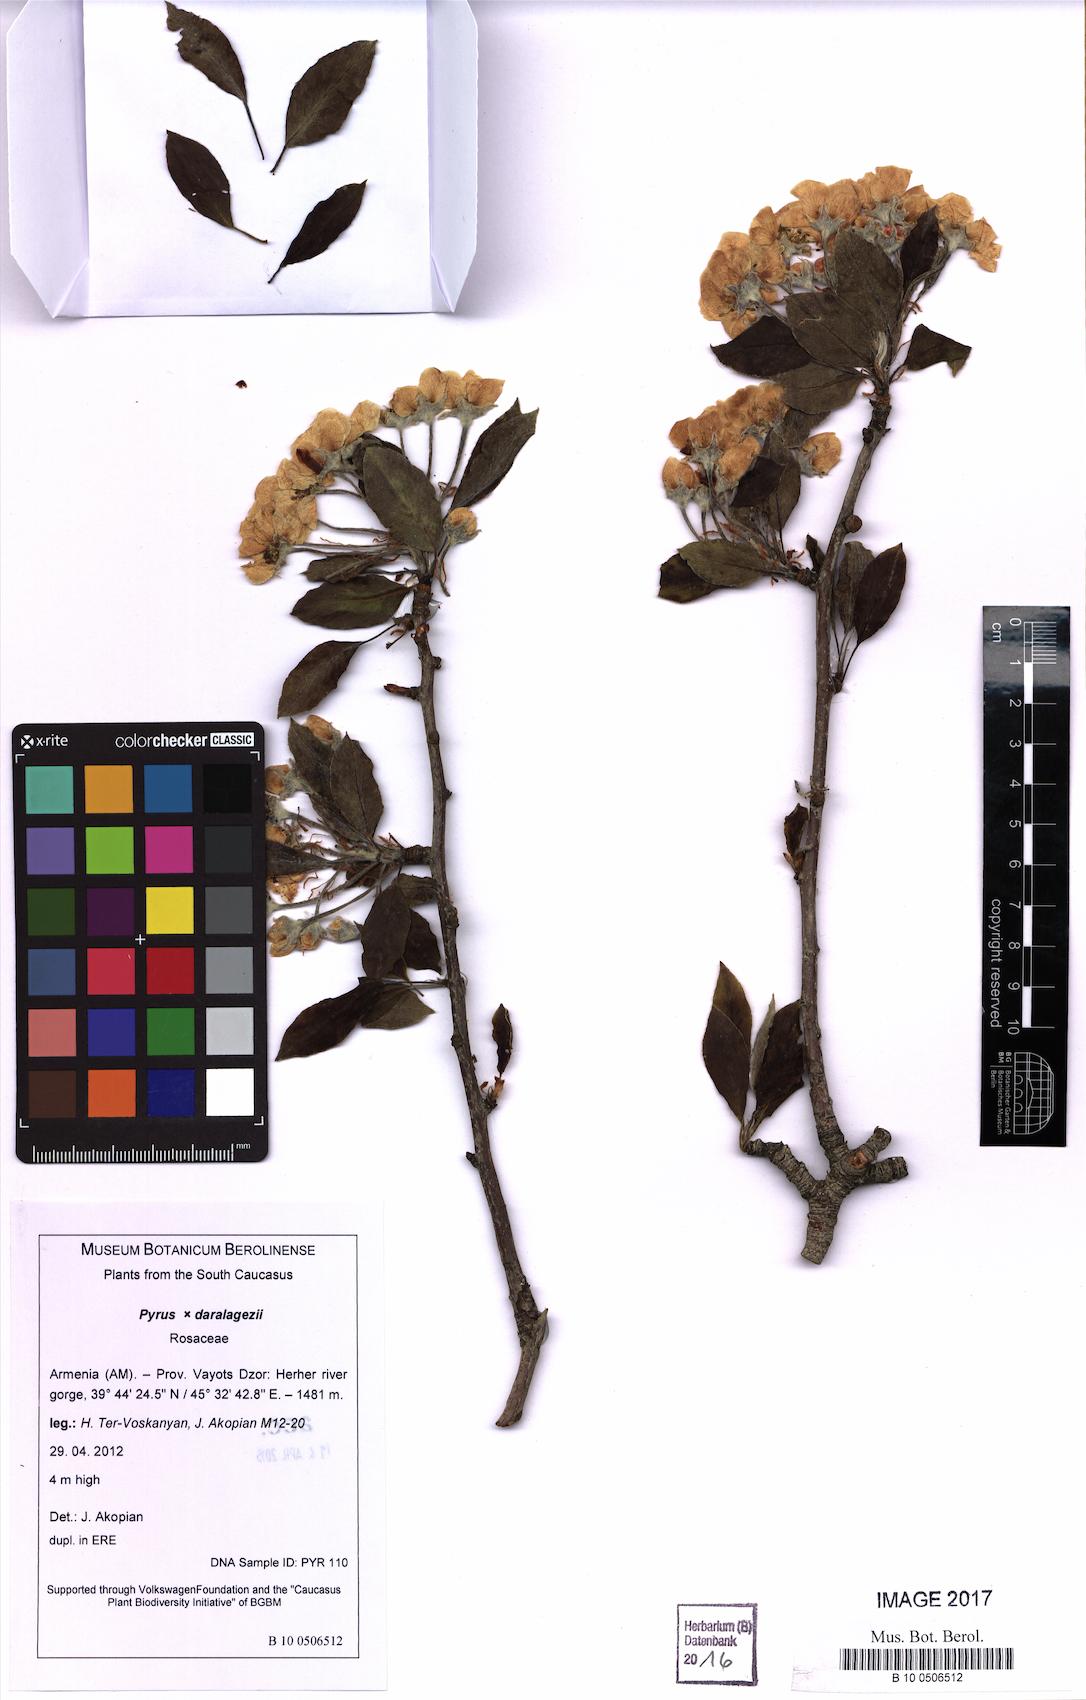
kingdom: Plantae
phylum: Tracheophyta
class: Magnoliopsida
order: Rosales
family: Rosaceae
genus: Pyrus
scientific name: Pyrus daralagezi
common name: Daralagezian pear
